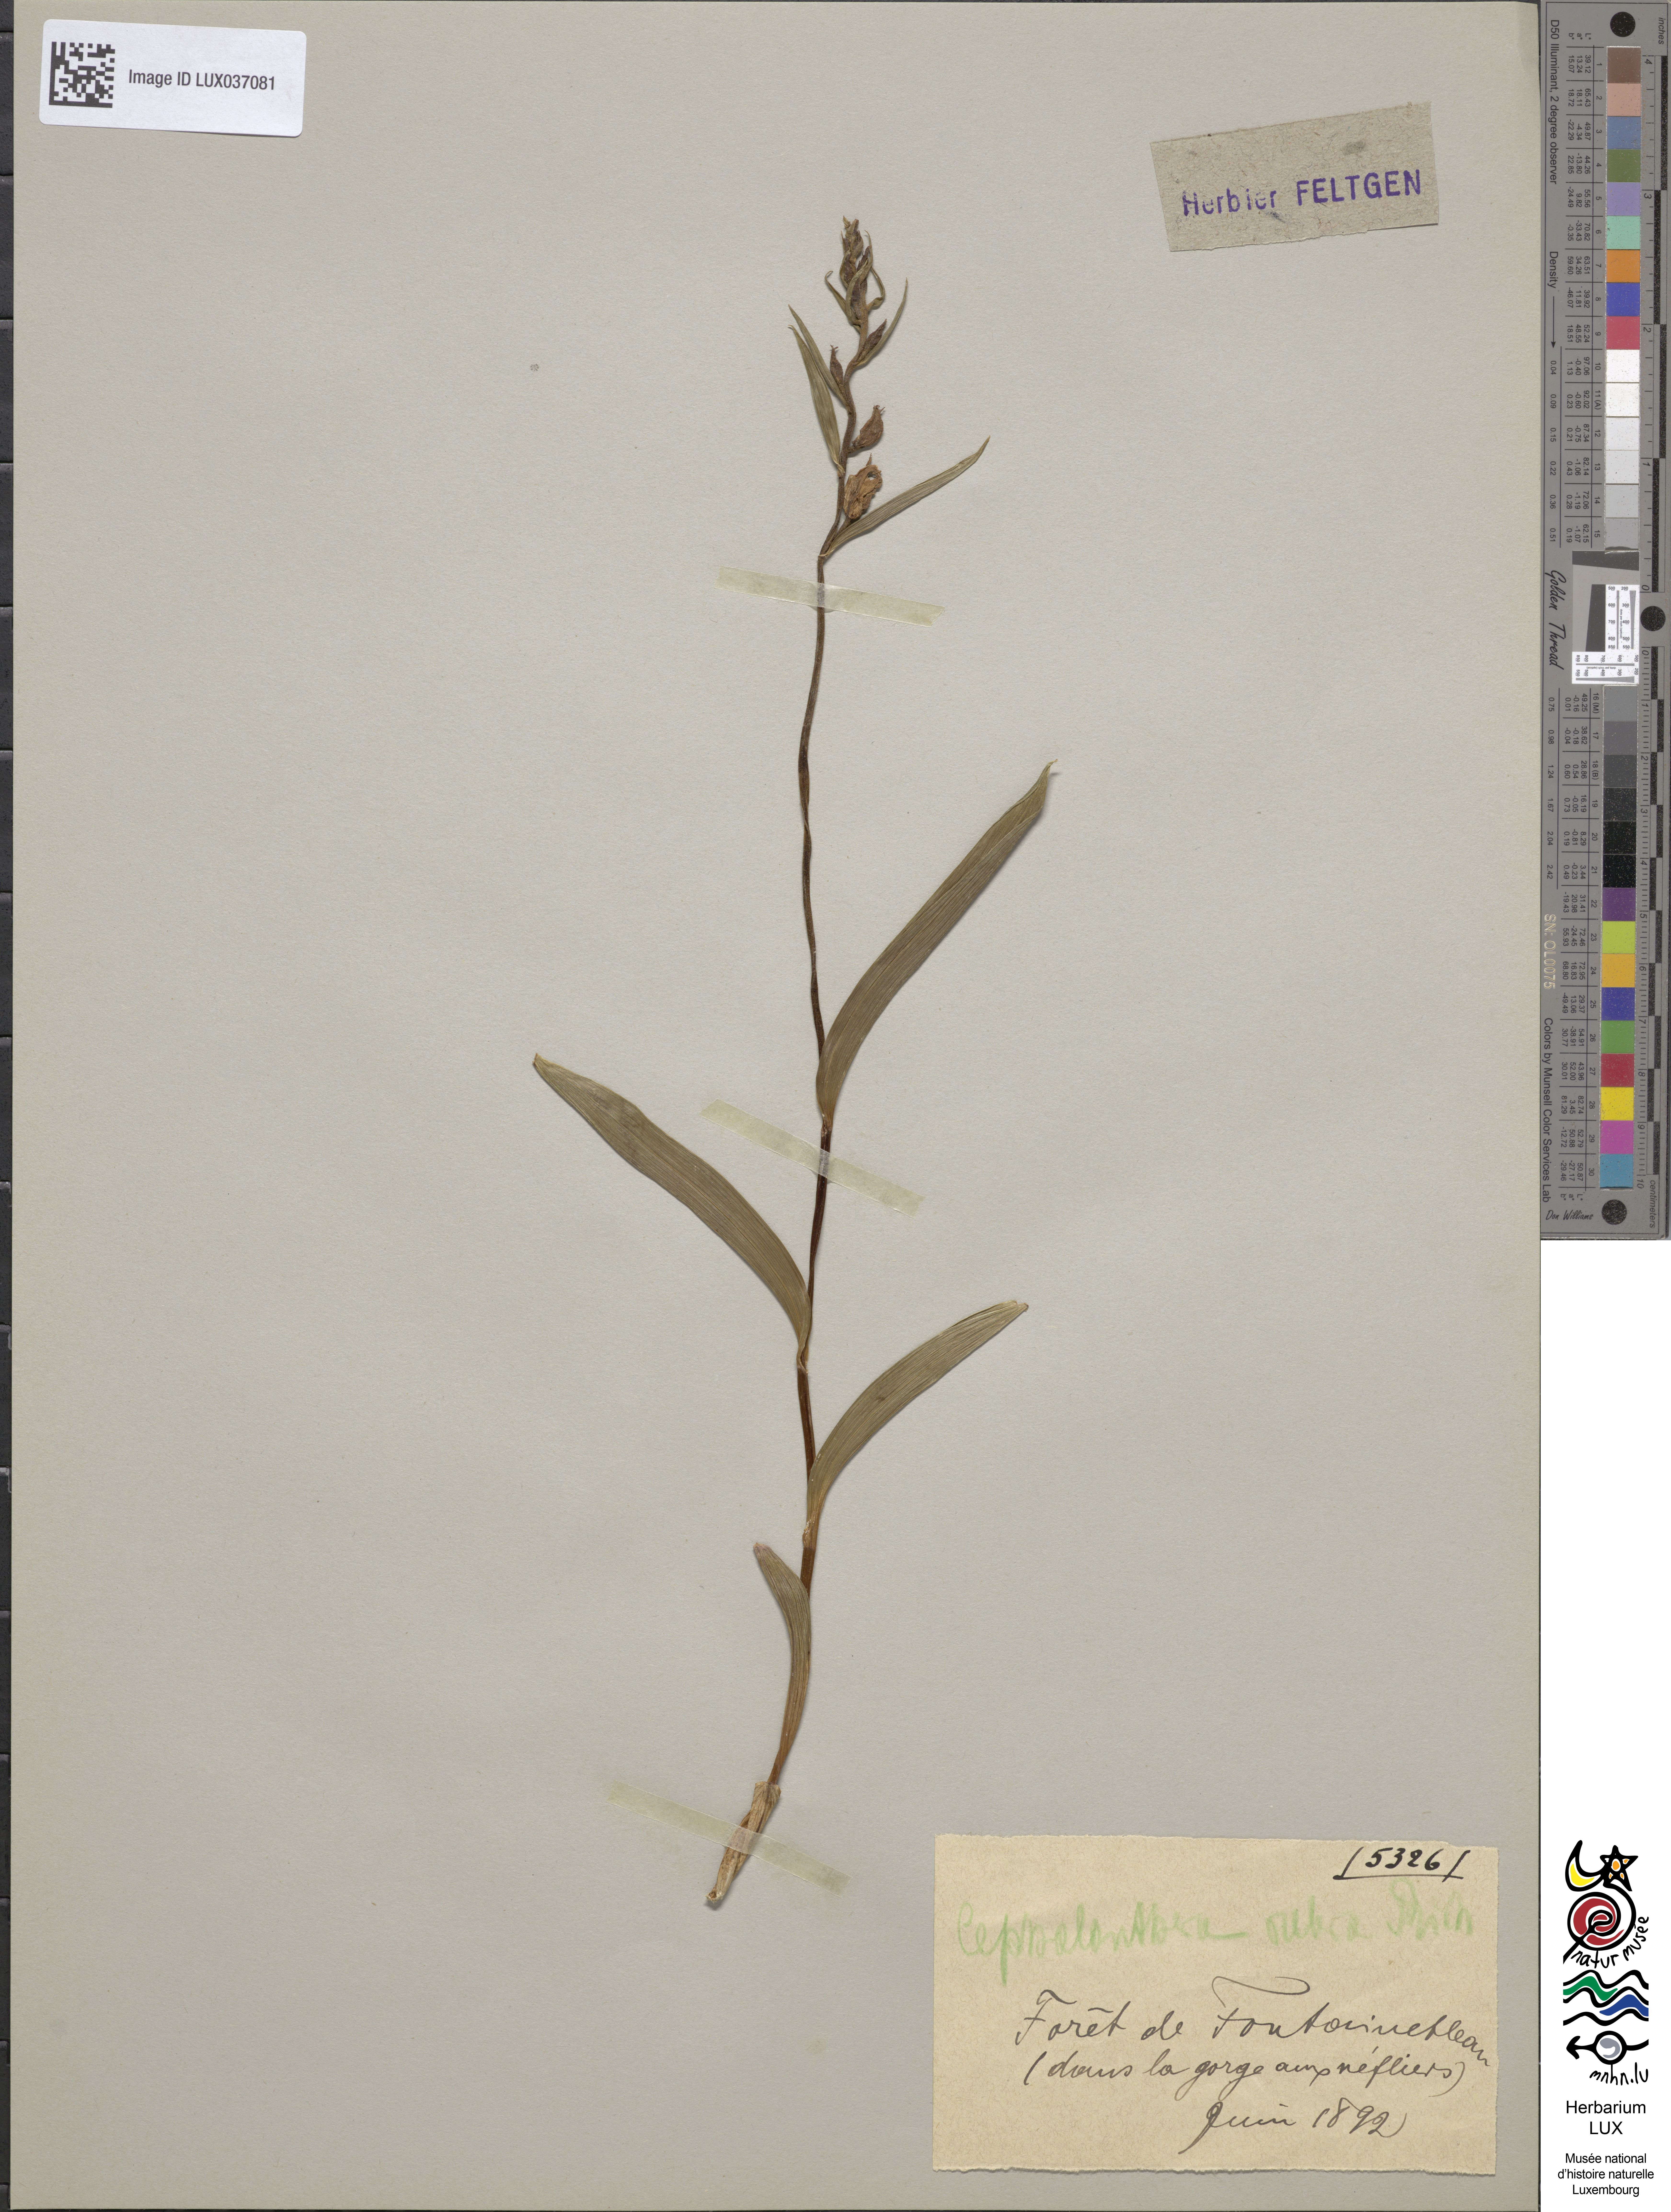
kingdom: Plantae
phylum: Tracheophyta
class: Liliopsida
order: Asparagales
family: Orchidaceae
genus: Cephalanthera
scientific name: Cephalanthera rubra
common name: Red helleborine
